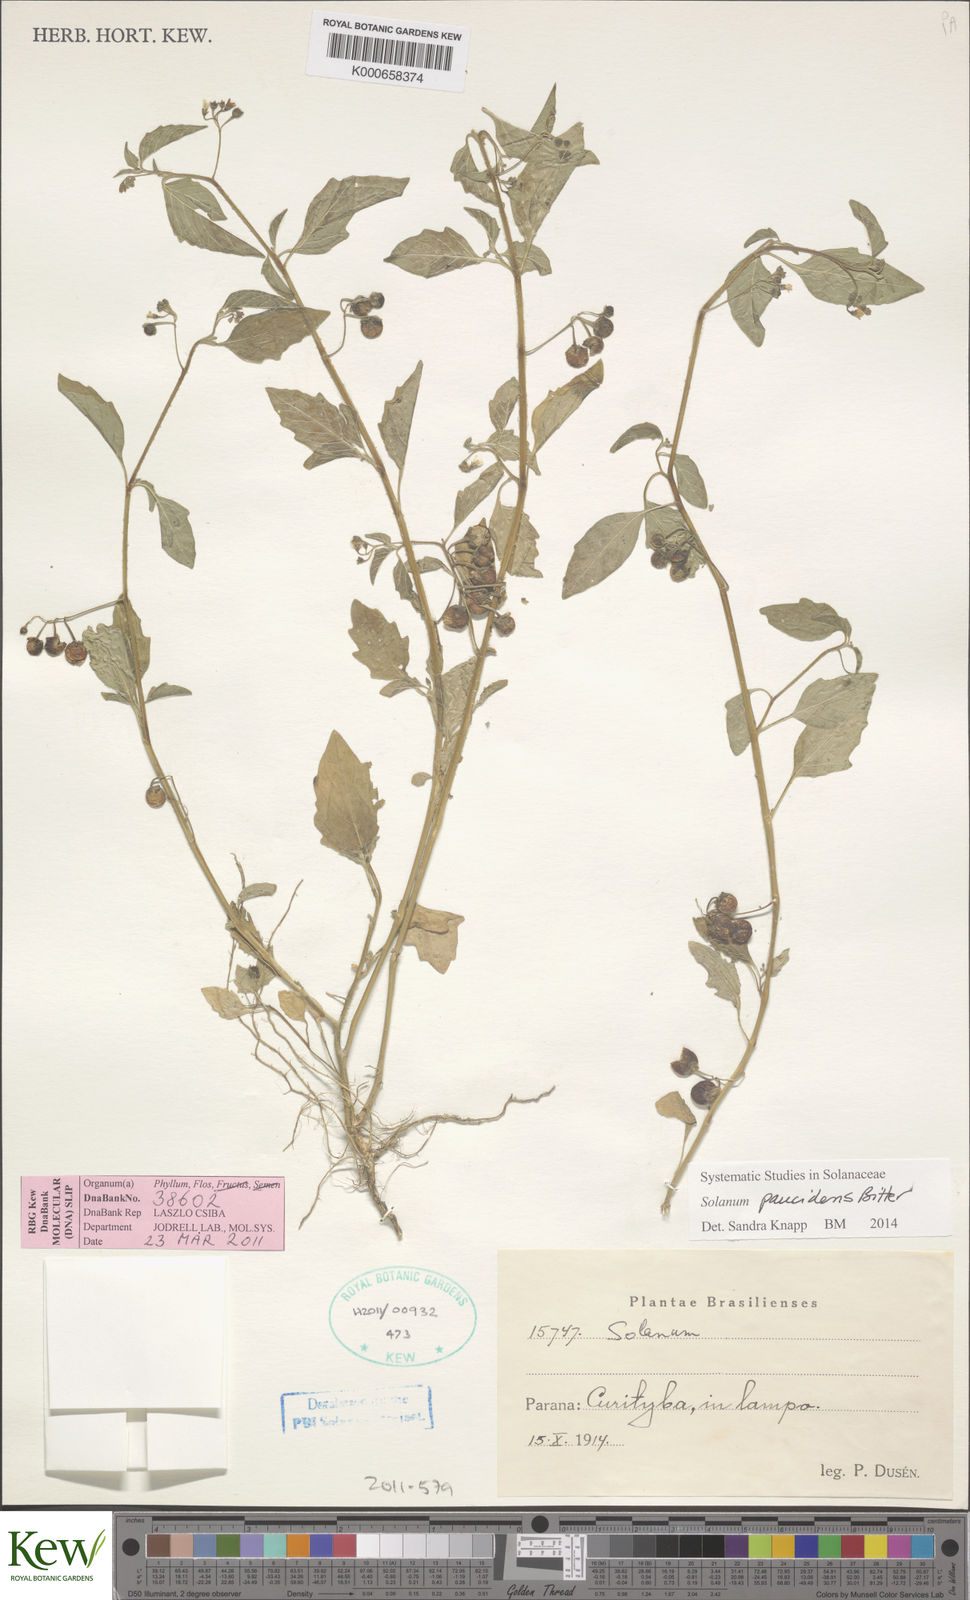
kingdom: Plantae
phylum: Tracheophyta
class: Magnoliopsida
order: Solanales
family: Solanaceae
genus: Solanum
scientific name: Solanum pilcomayense
